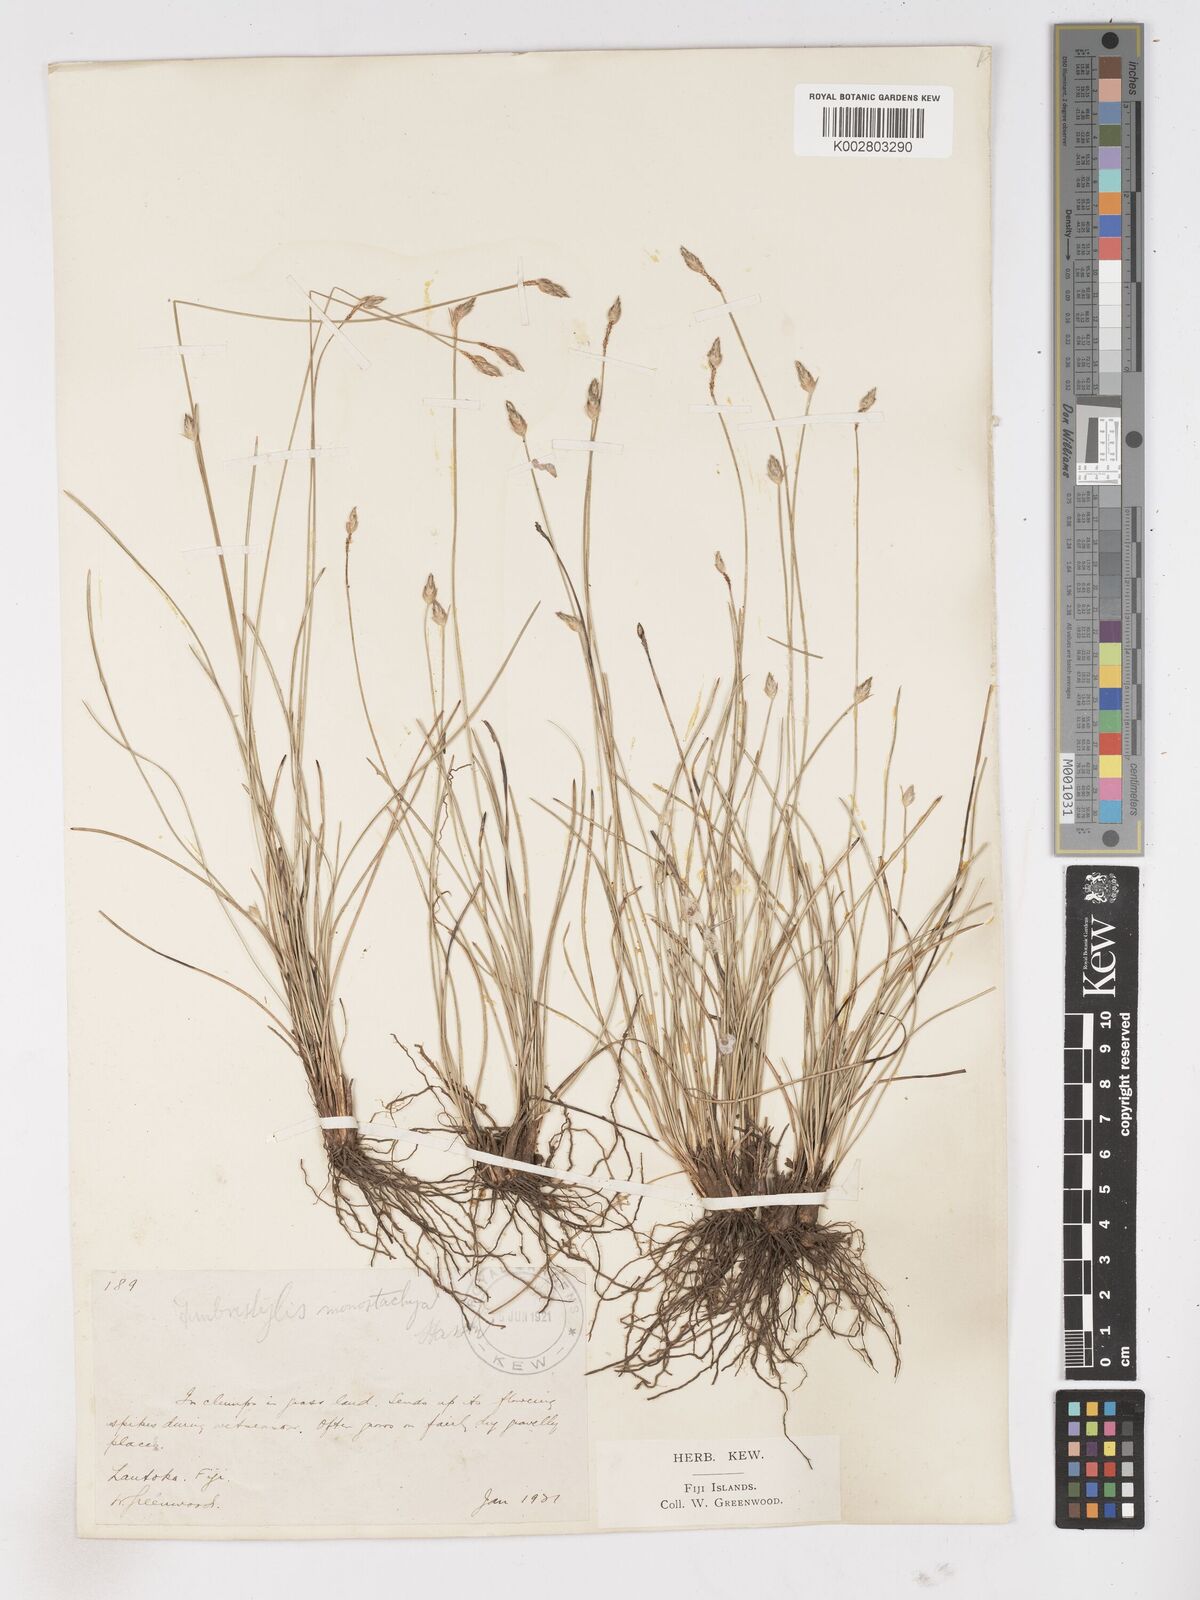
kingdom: Plantae
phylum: Tracheophyta
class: Liliopsida
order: Poales
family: Cyperaceae
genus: Abildgaardia
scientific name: Abildgaardia ovata
